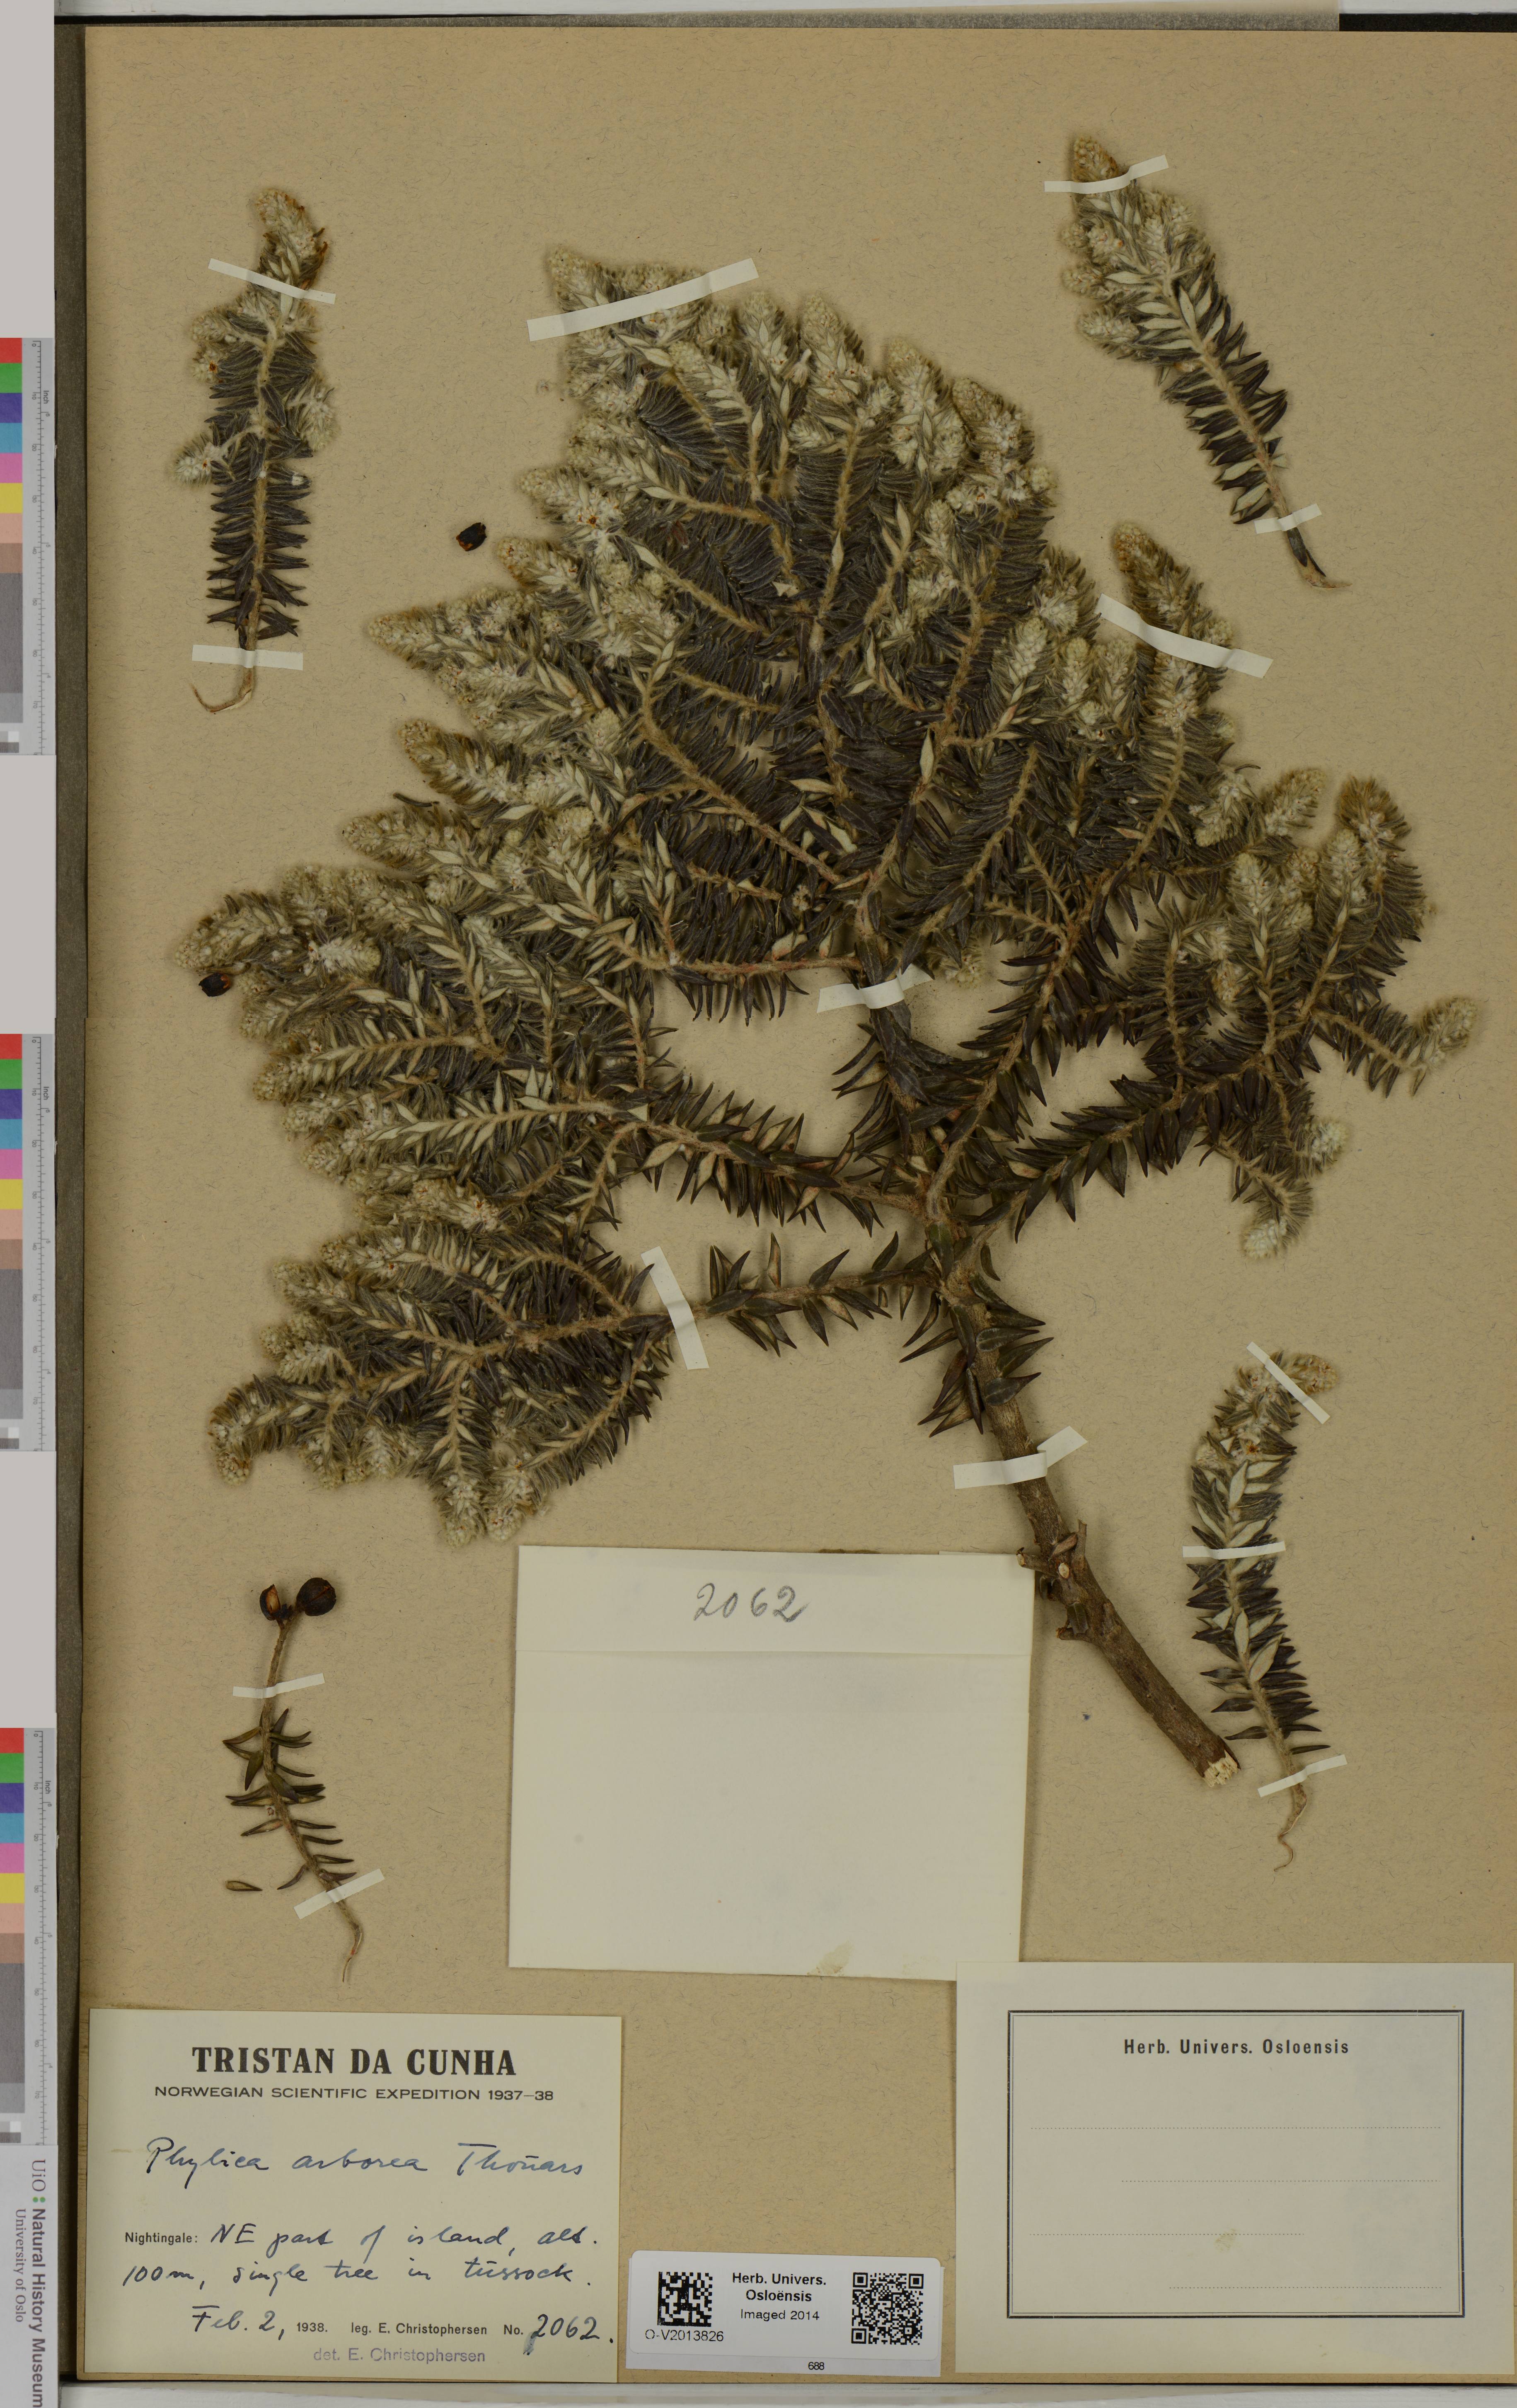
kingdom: Plantae
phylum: Tracheophyta
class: Magnoliopsida
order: Rosales
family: Rhamnaceae
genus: Phylica
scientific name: Phylica arborea
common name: Island cape myrtle
